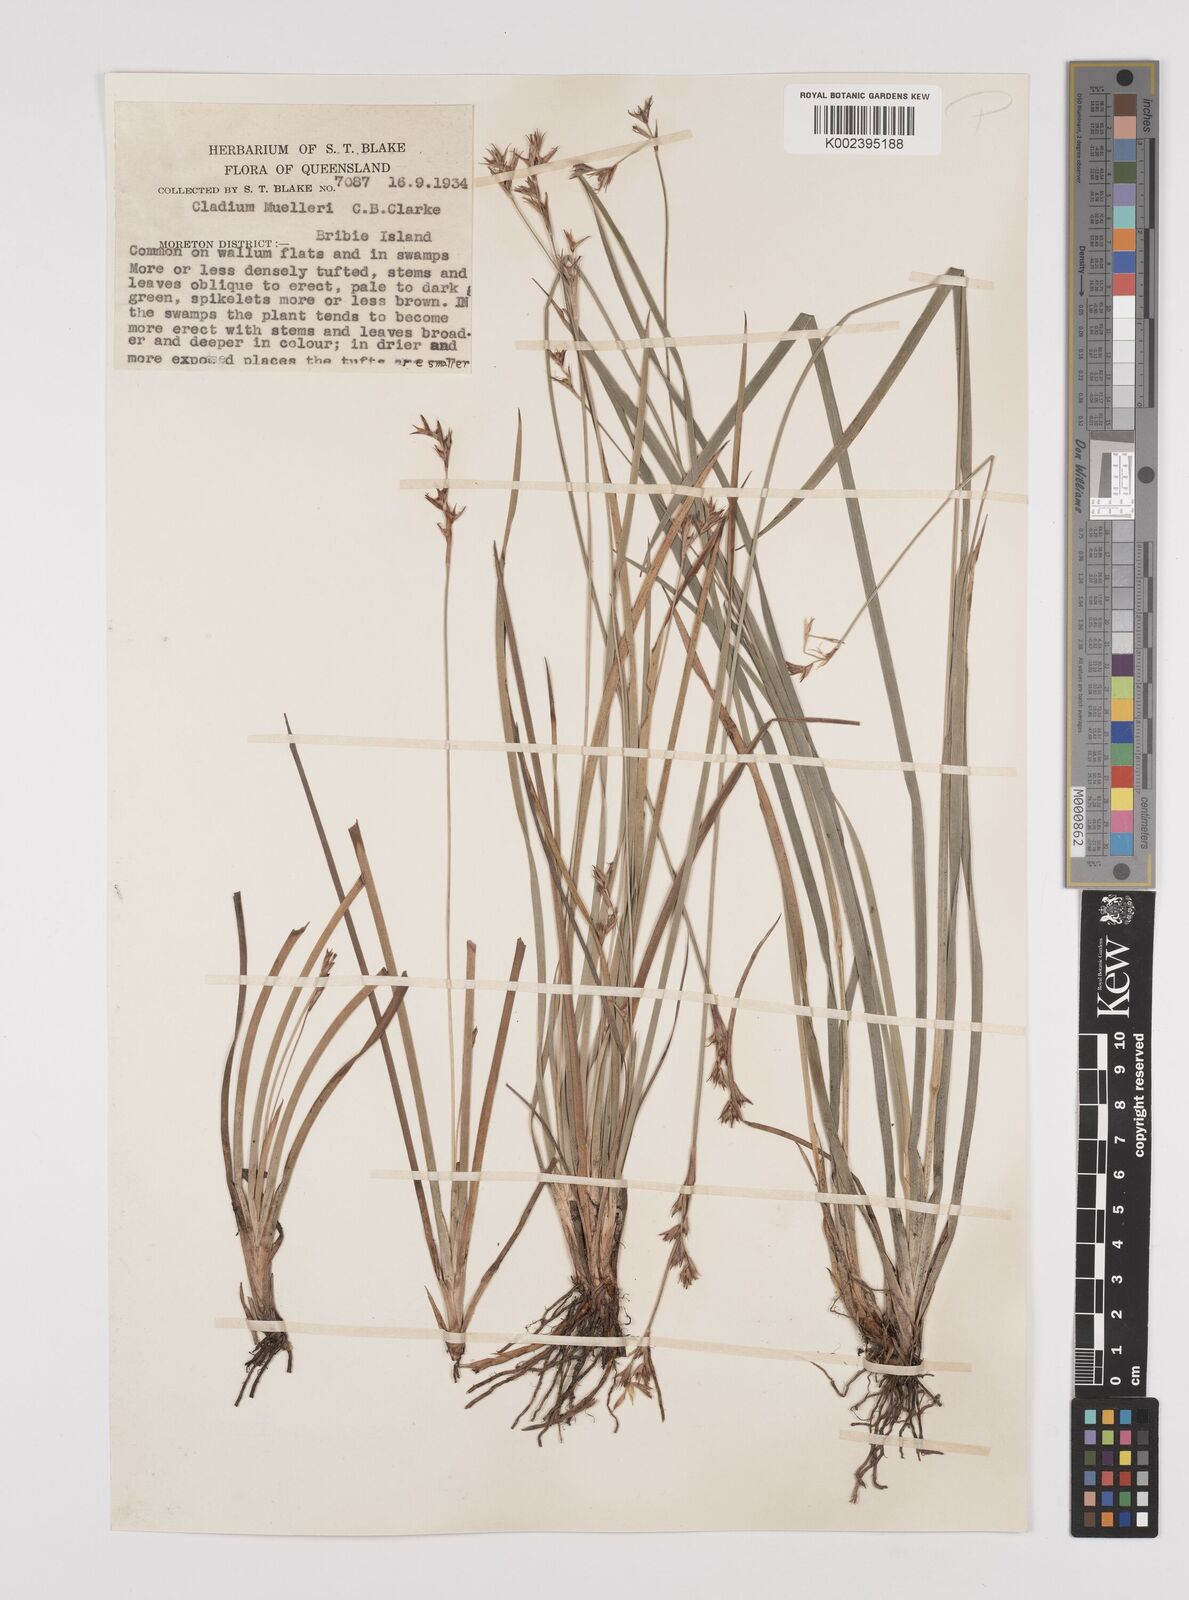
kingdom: Plantae
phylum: Tracheophyta
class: Liliopsida
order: Poales
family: Cyperaceae
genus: Machaerina
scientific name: Machaerina muelleri
